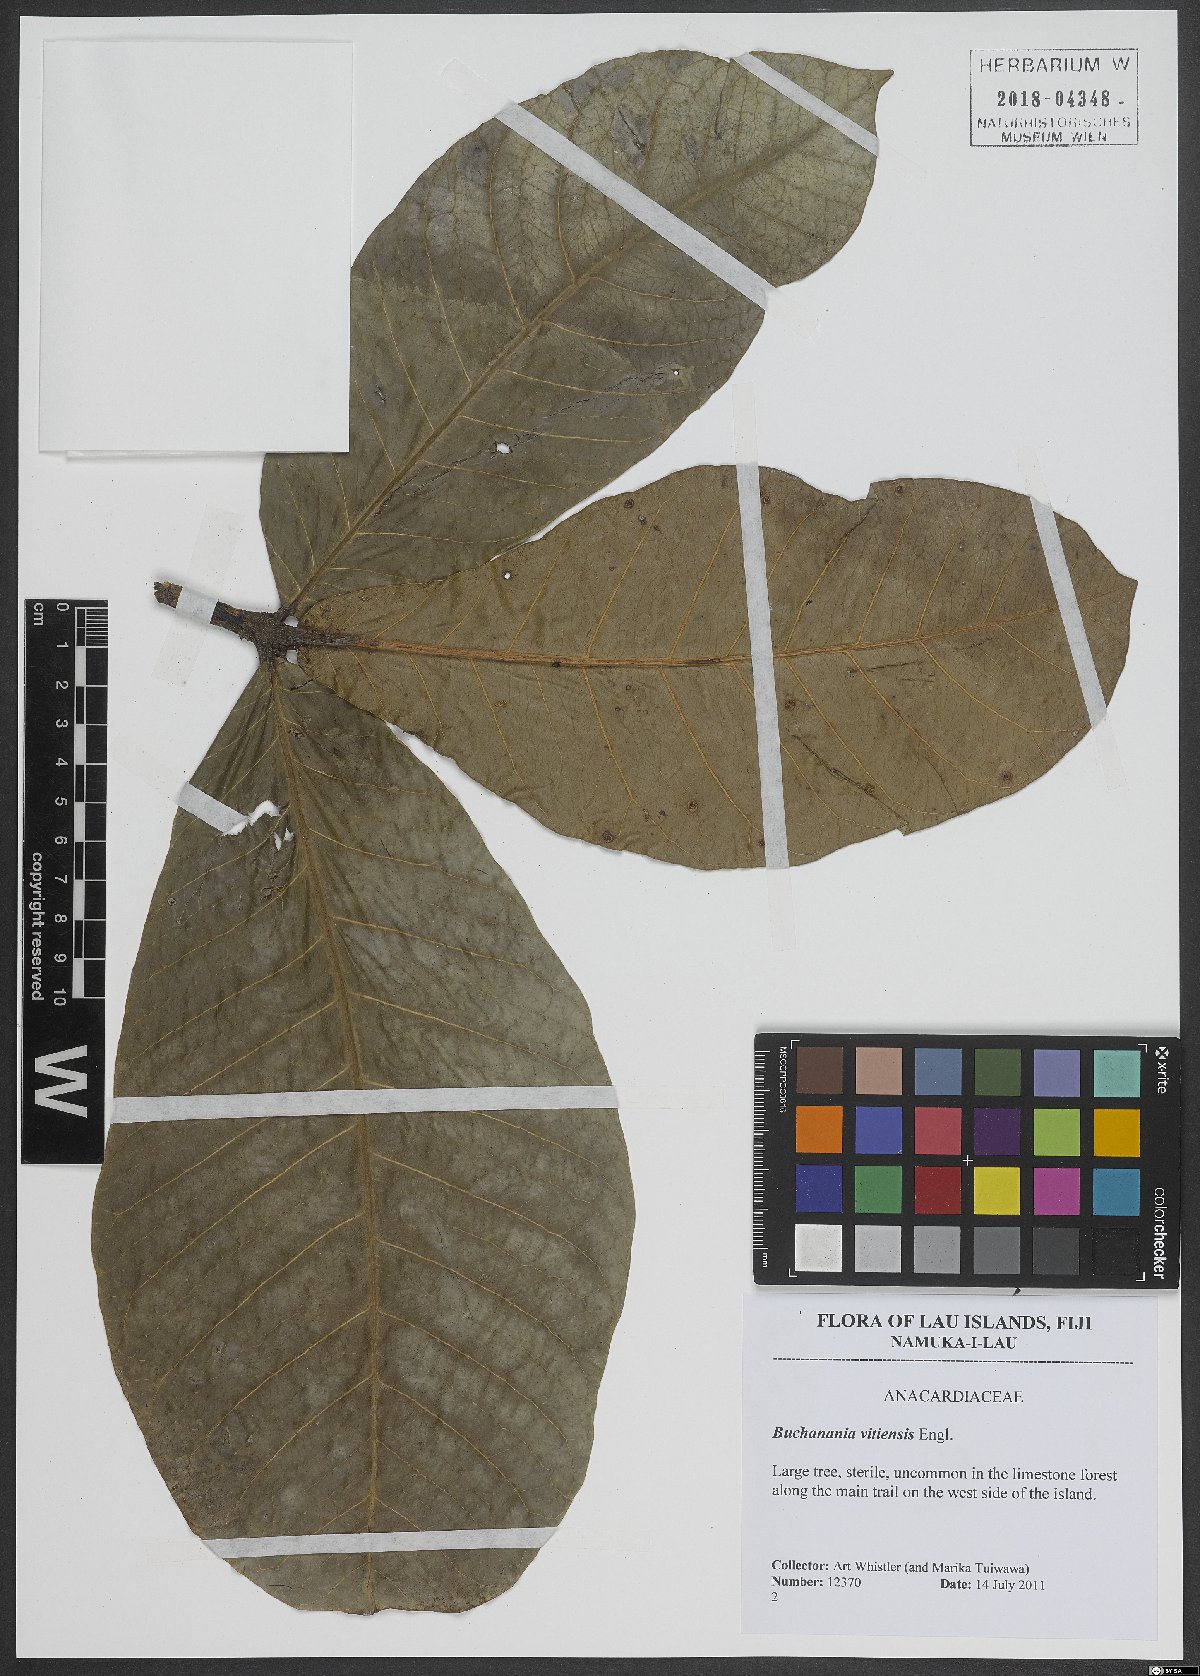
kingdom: Plantae
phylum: Tracheophyta
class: Magnoliopsida
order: Sapindales
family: Anacardiaceae
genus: Buchanania
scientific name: Buchanania vitiensis
